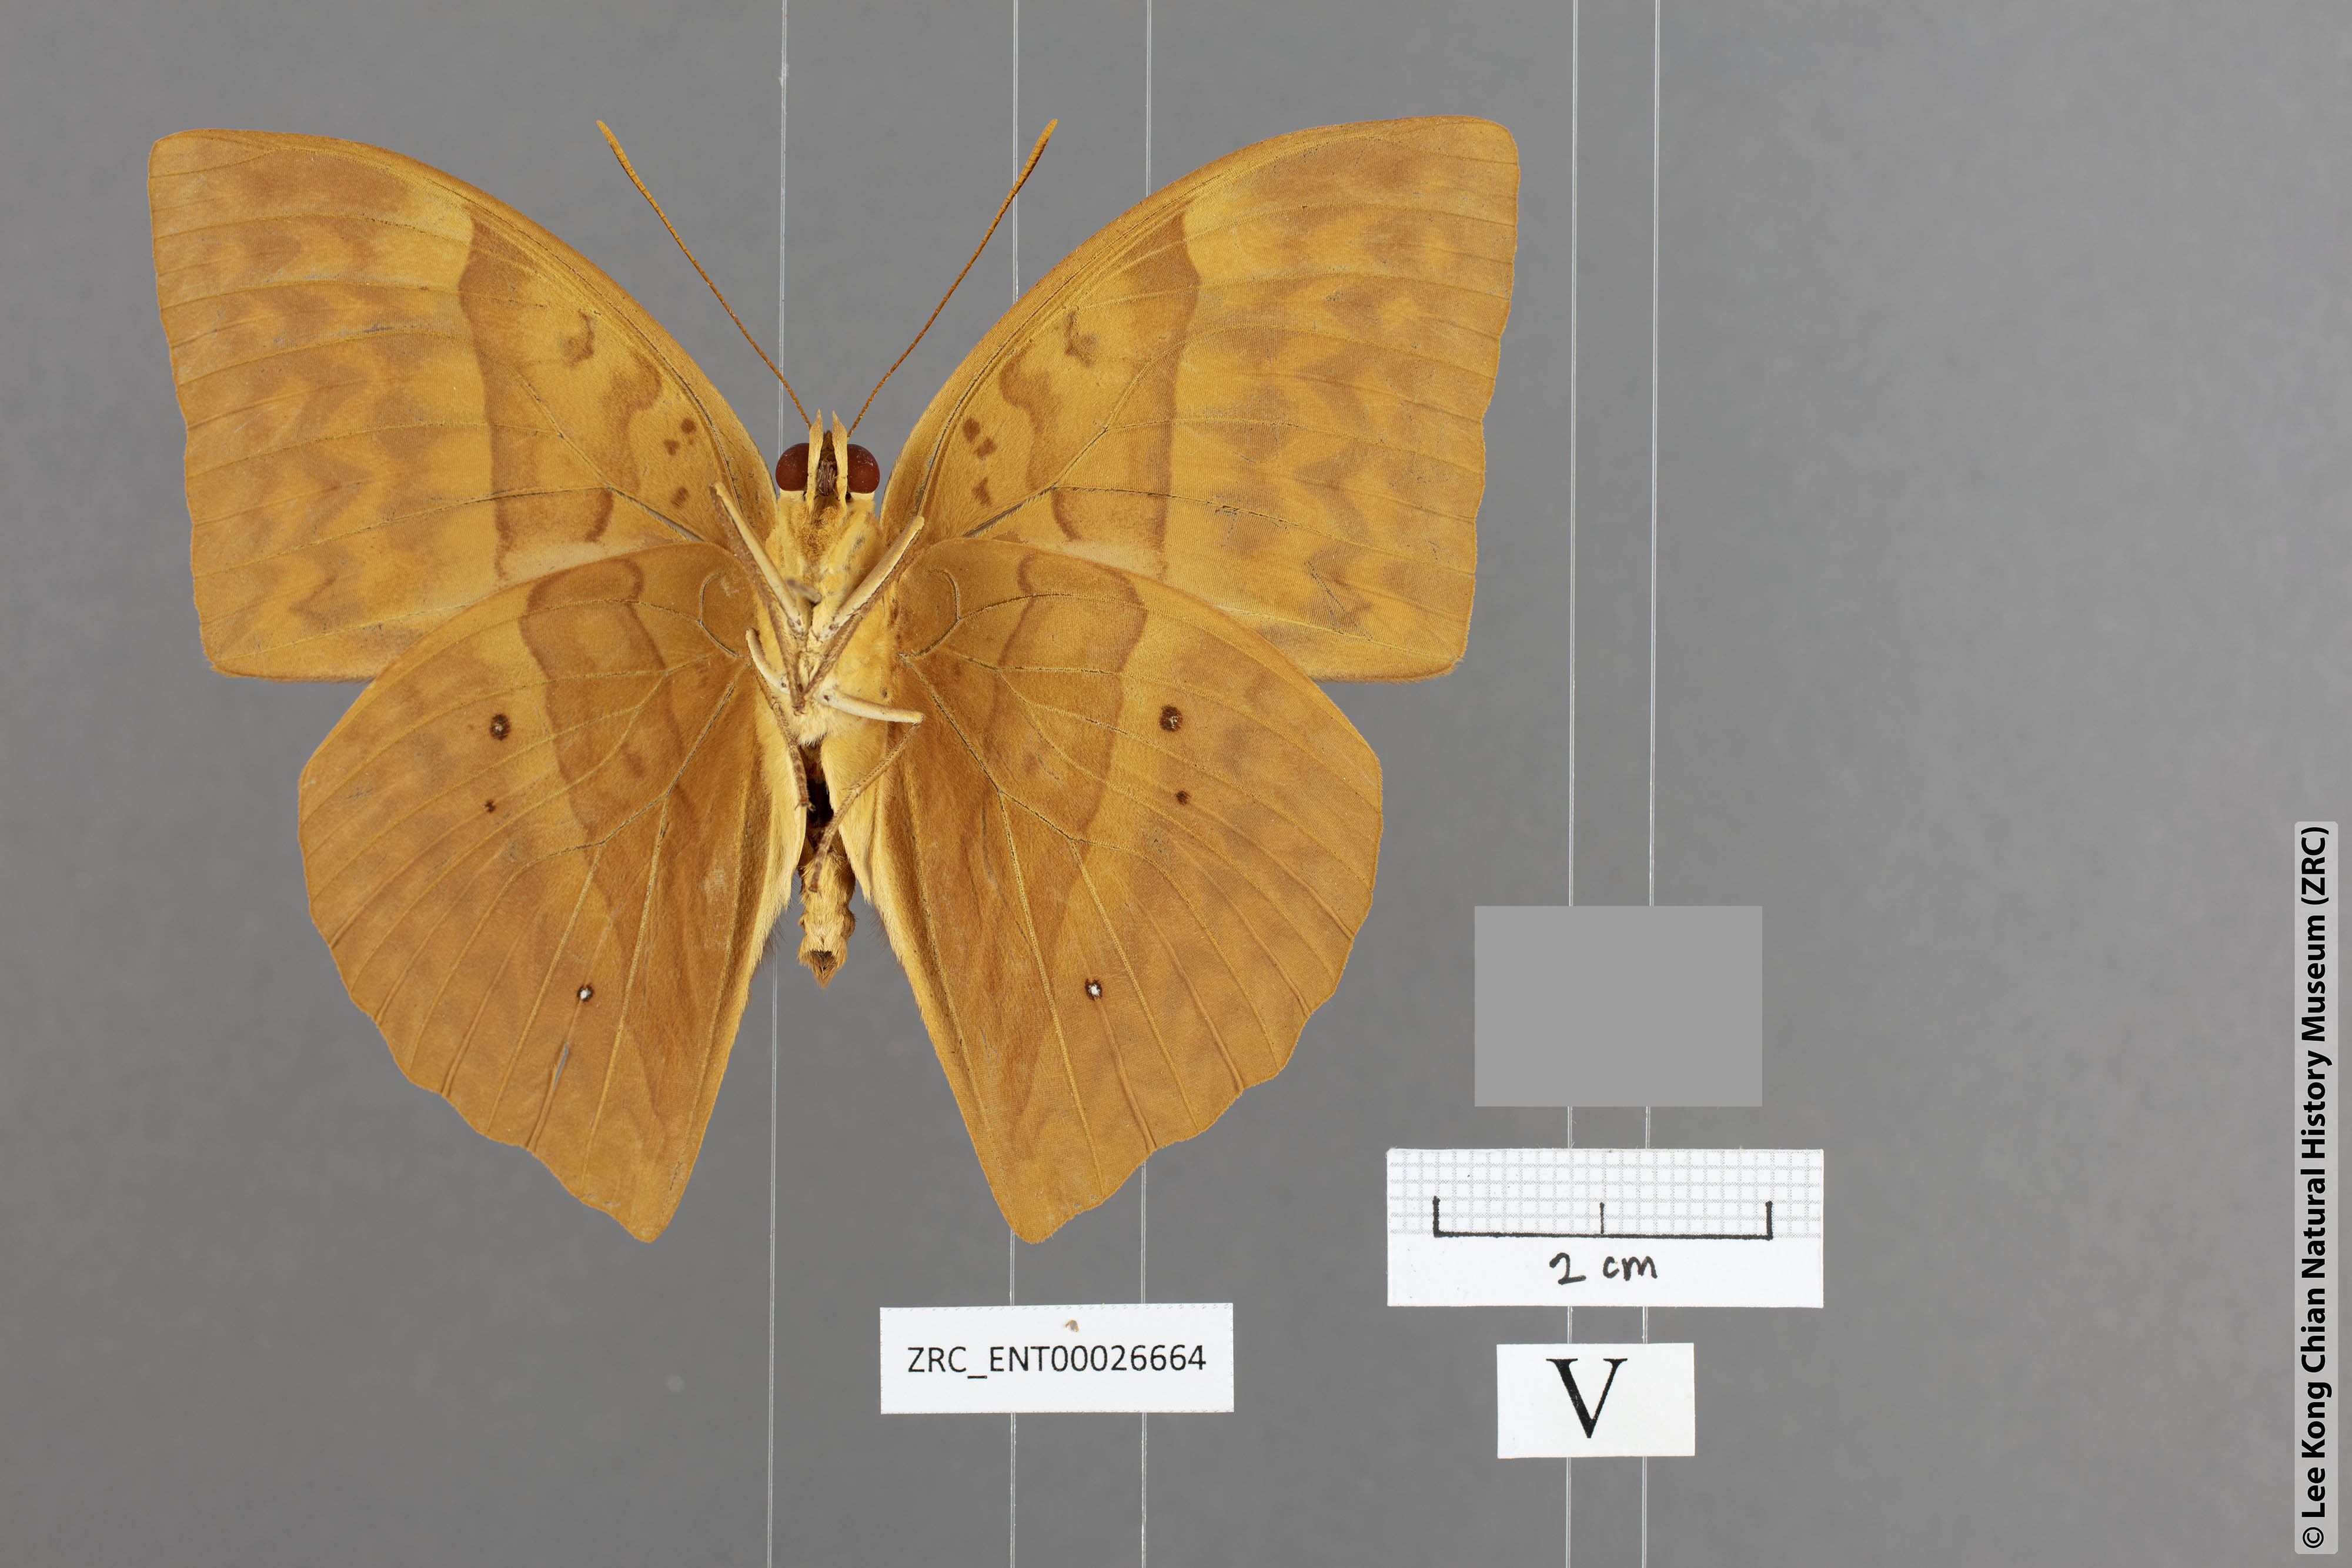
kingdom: Animalia
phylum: Arthropoda
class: Insecta
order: Lepidoptera
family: Nymphalidae
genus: Enispe
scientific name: Enispe intermedia
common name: Intermediate caliph
